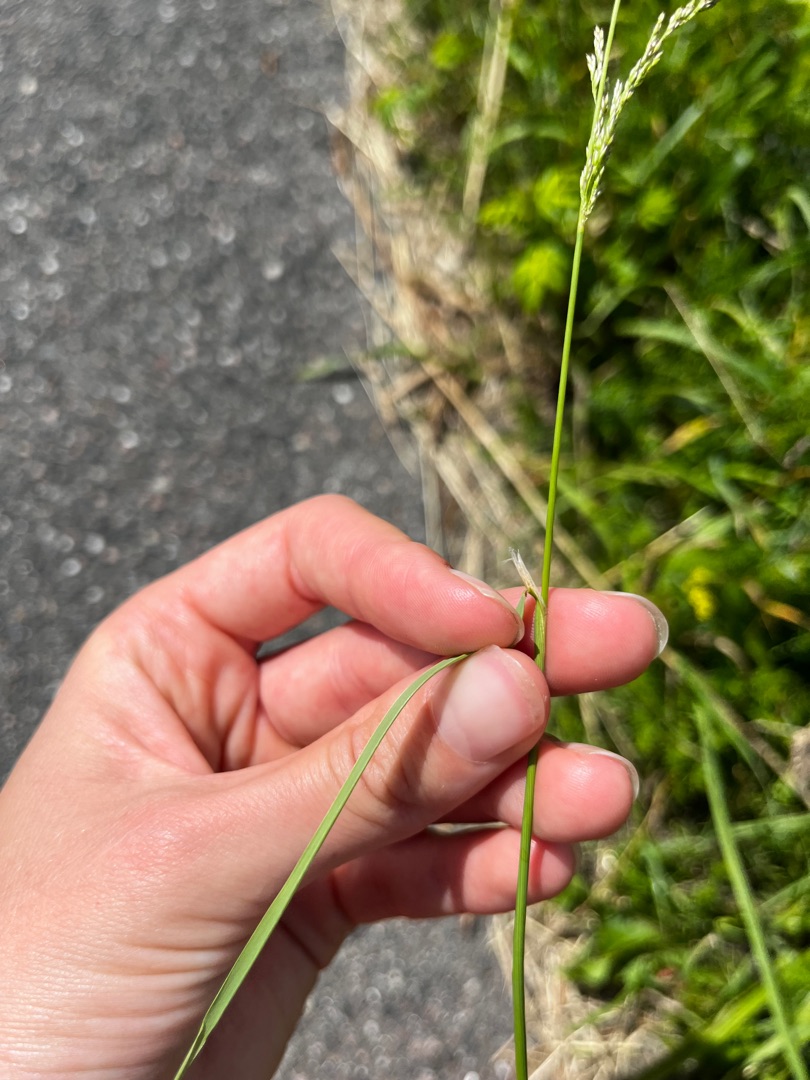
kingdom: Plantae
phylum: Tracheophyta
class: Liliopsida
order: Poales
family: Poaceae
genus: Agrostis
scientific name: Agrostis
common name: Hveneslægten
